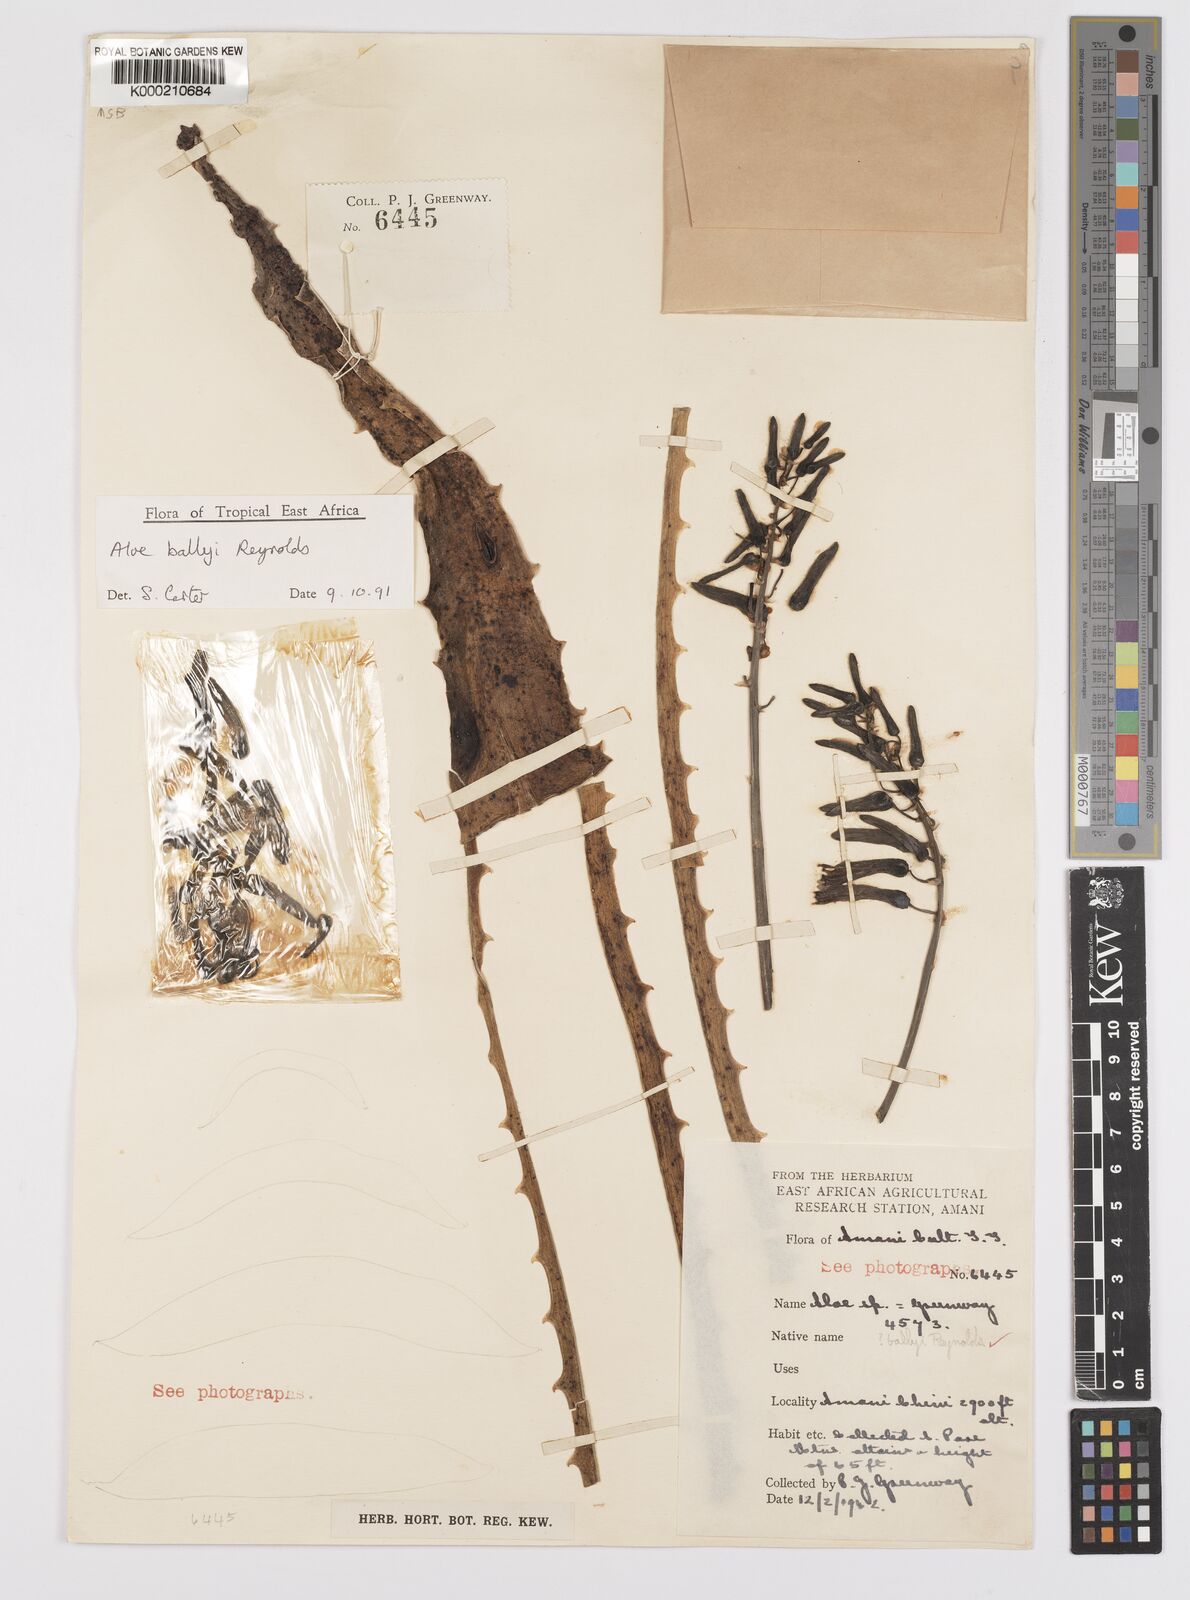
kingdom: Plantae
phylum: Tracheophyta
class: Liliopsida
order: Asparagales
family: Asphodelaceae
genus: Aloe
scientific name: Aloe ballyi
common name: Rat aloe
